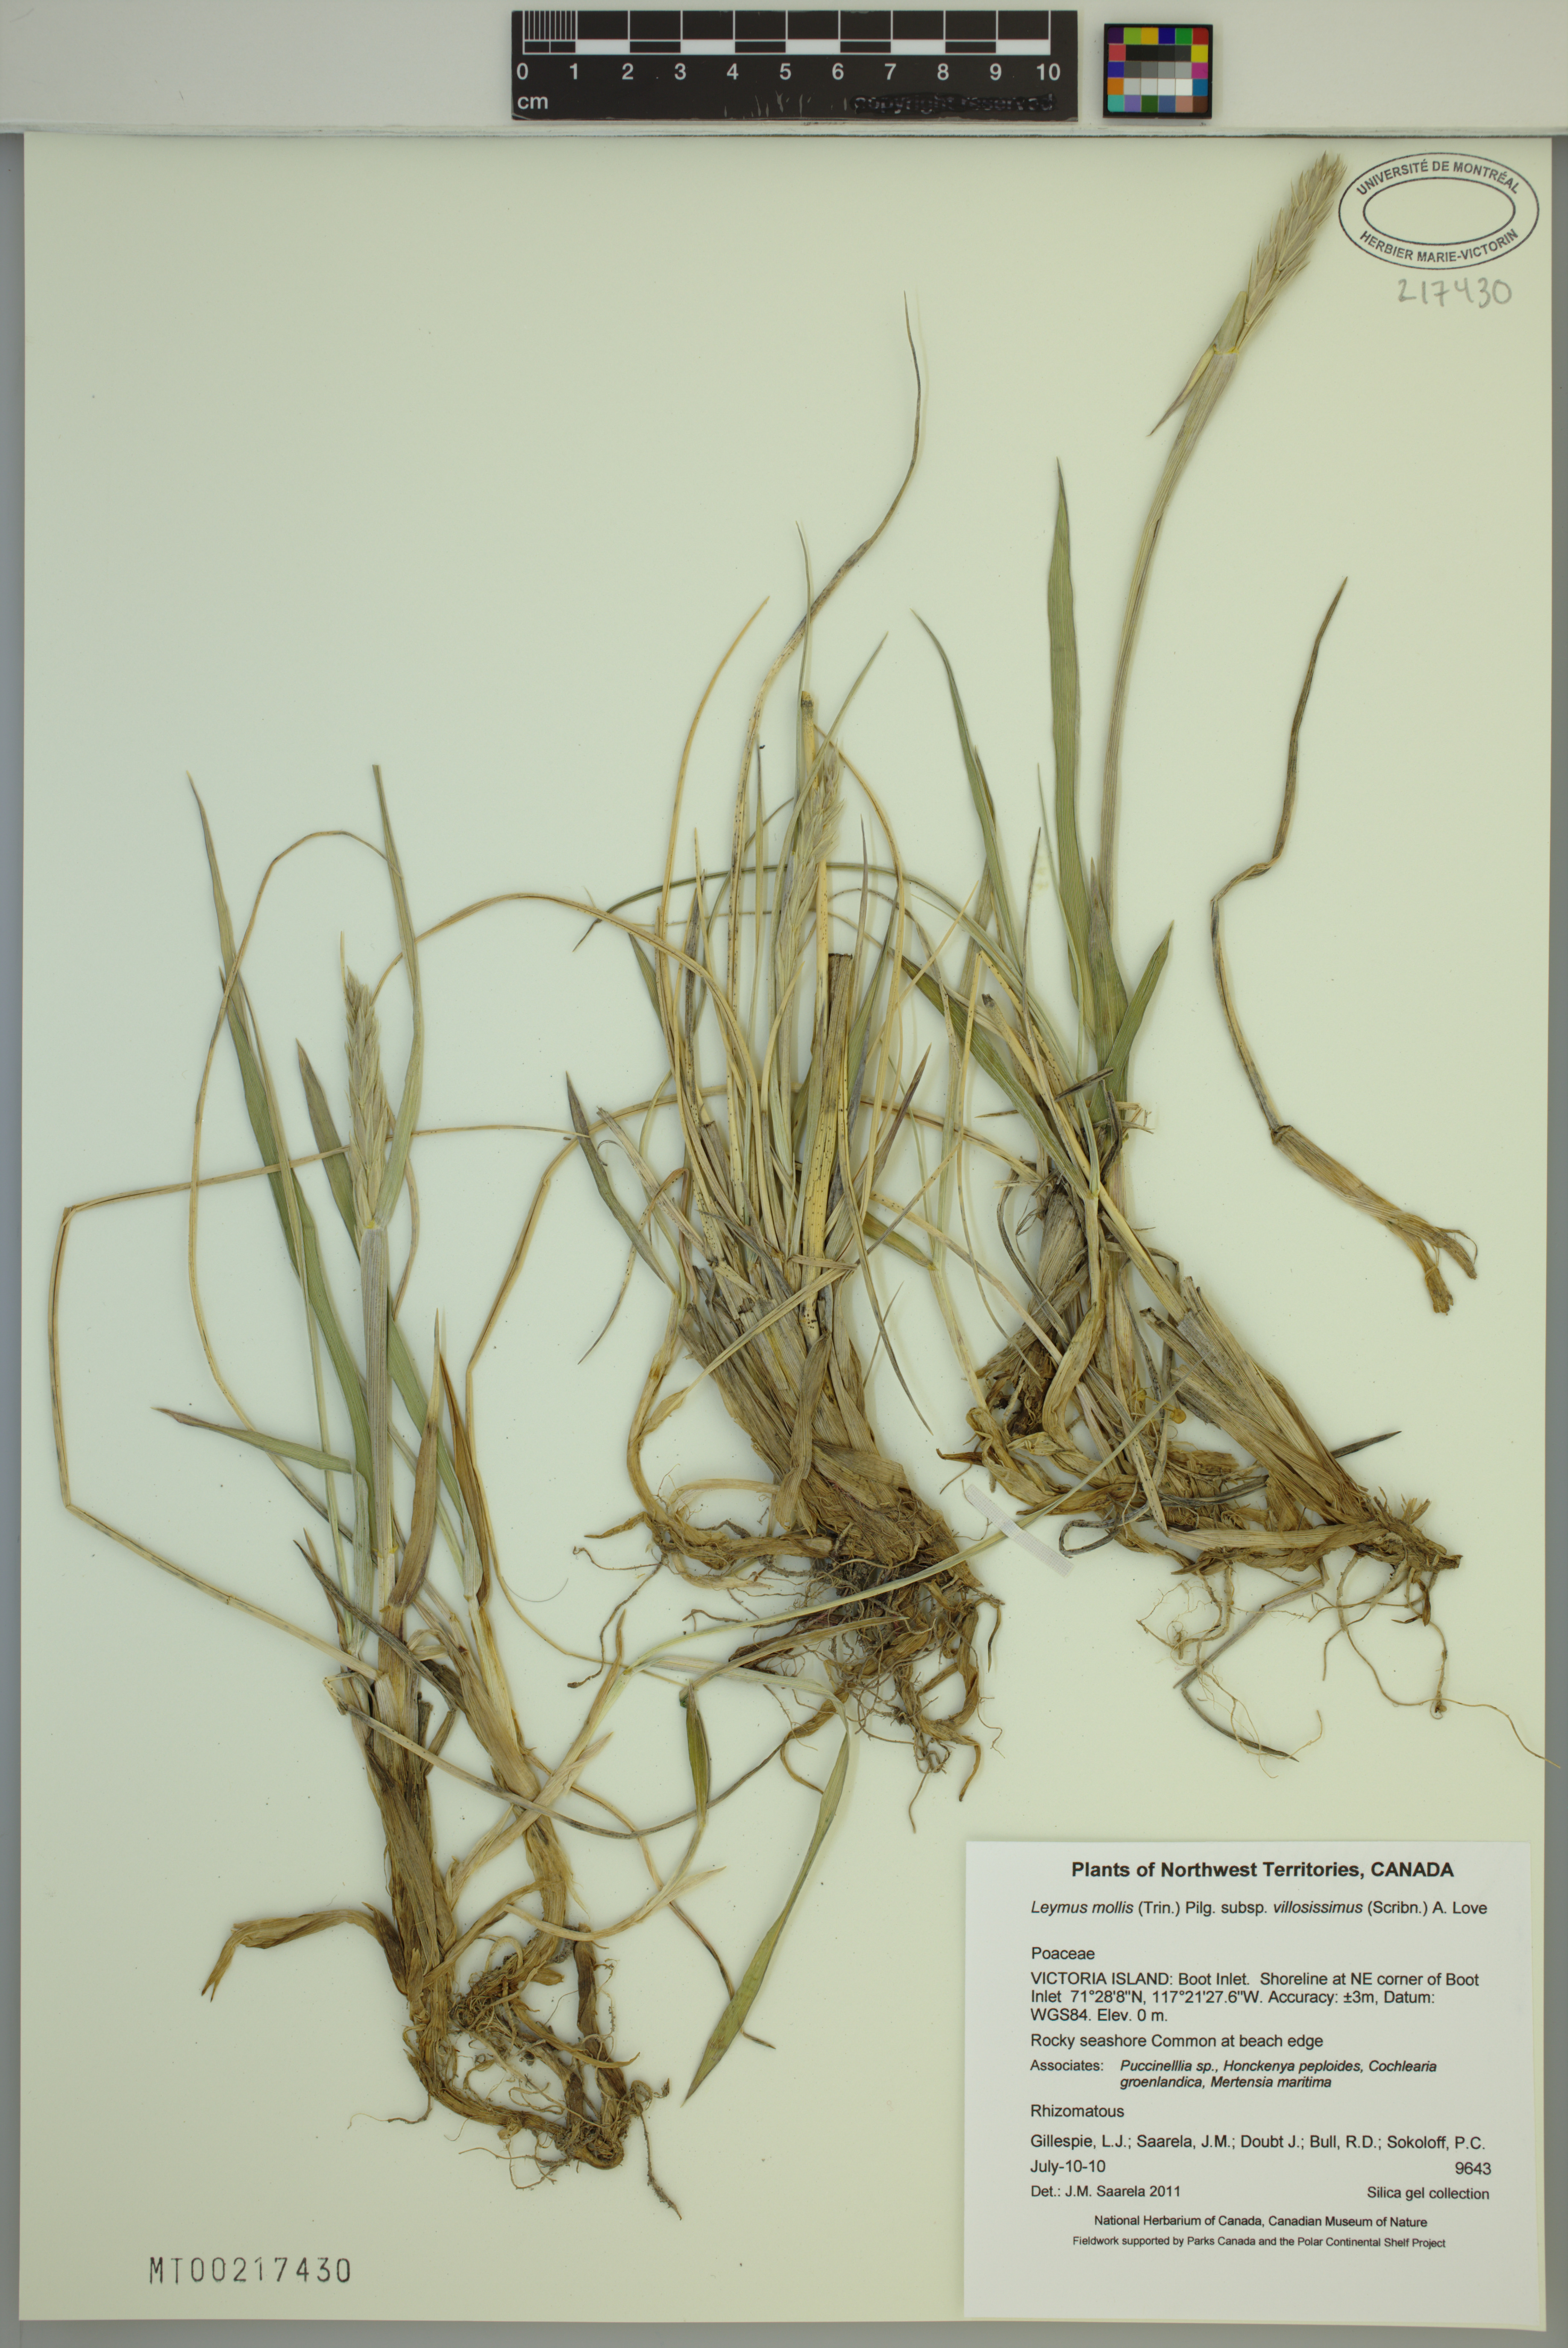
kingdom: Plantae
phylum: Tracheophyta
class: Liliopsida
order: Poales
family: Poaceae
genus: Leymus
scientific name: Leymus villosissimus
